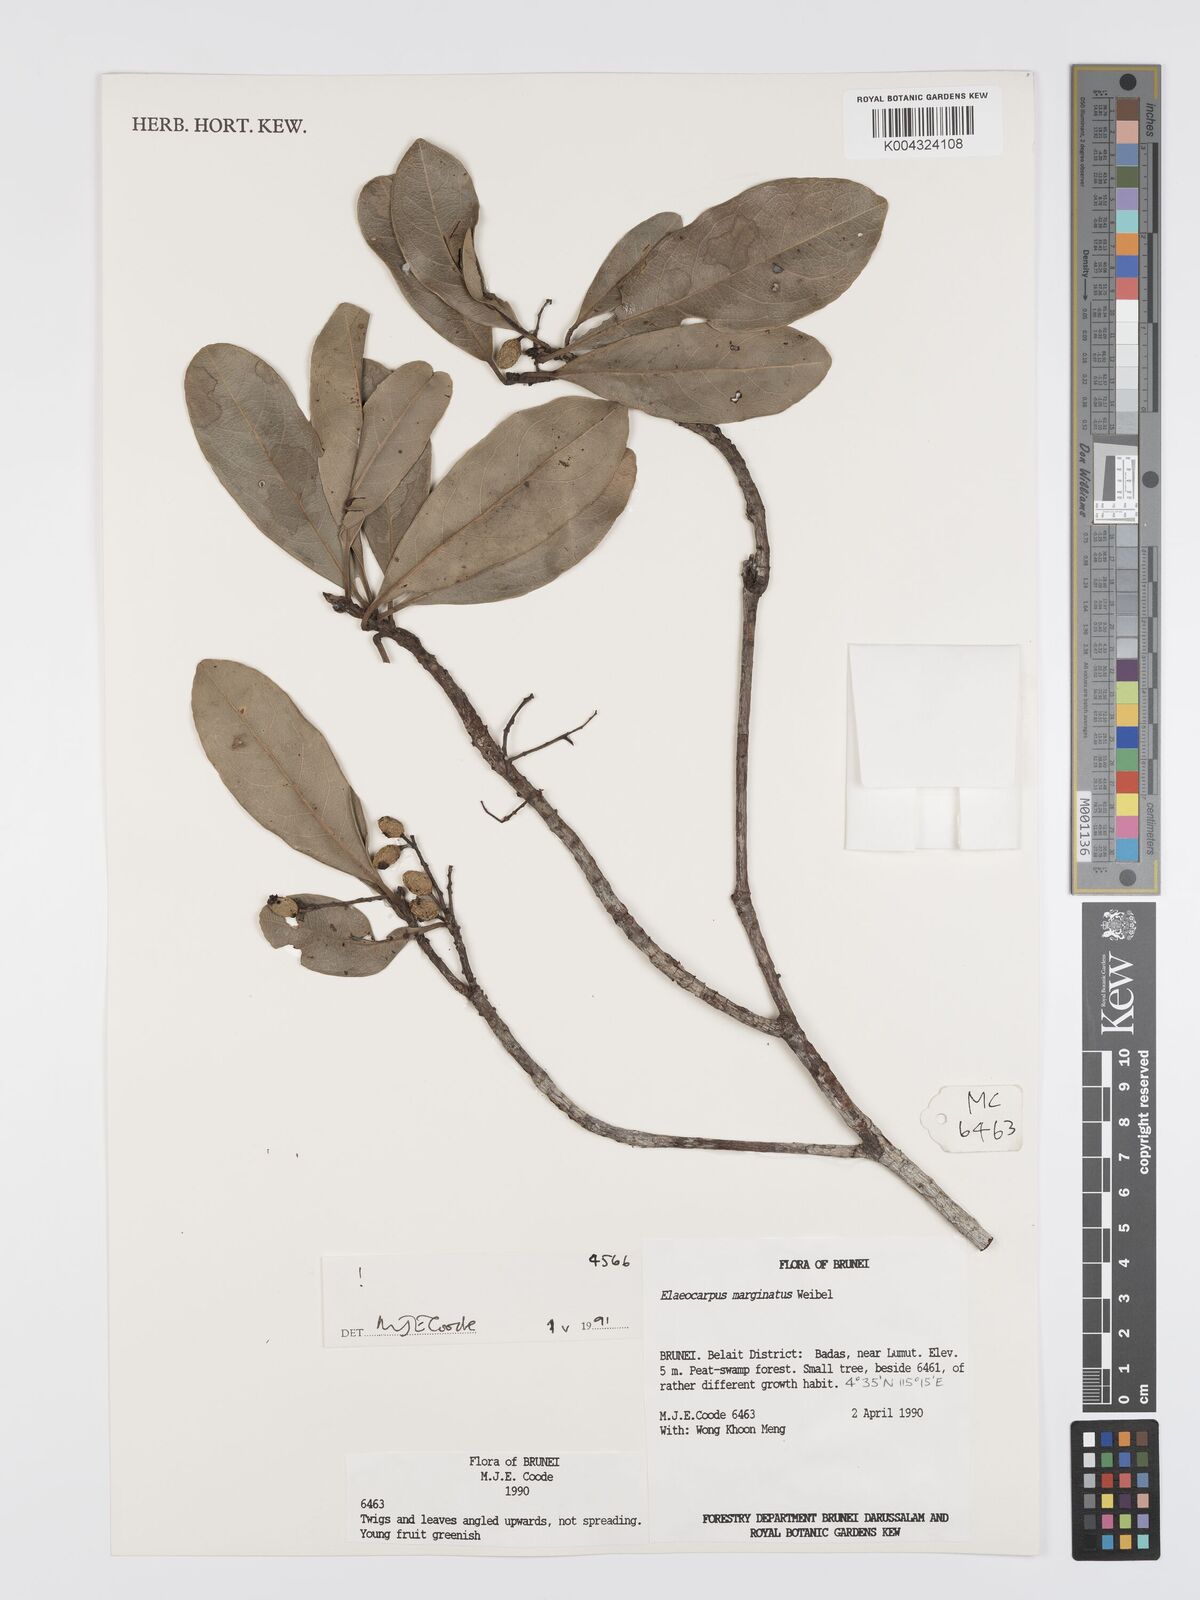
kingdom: Plantae
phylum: Tracheophyta
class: Magnoliopsida
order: Oxalidales
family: Elaeocarpaceae
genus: Elaeocarpus
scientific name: Elaeocarpus marginatus
